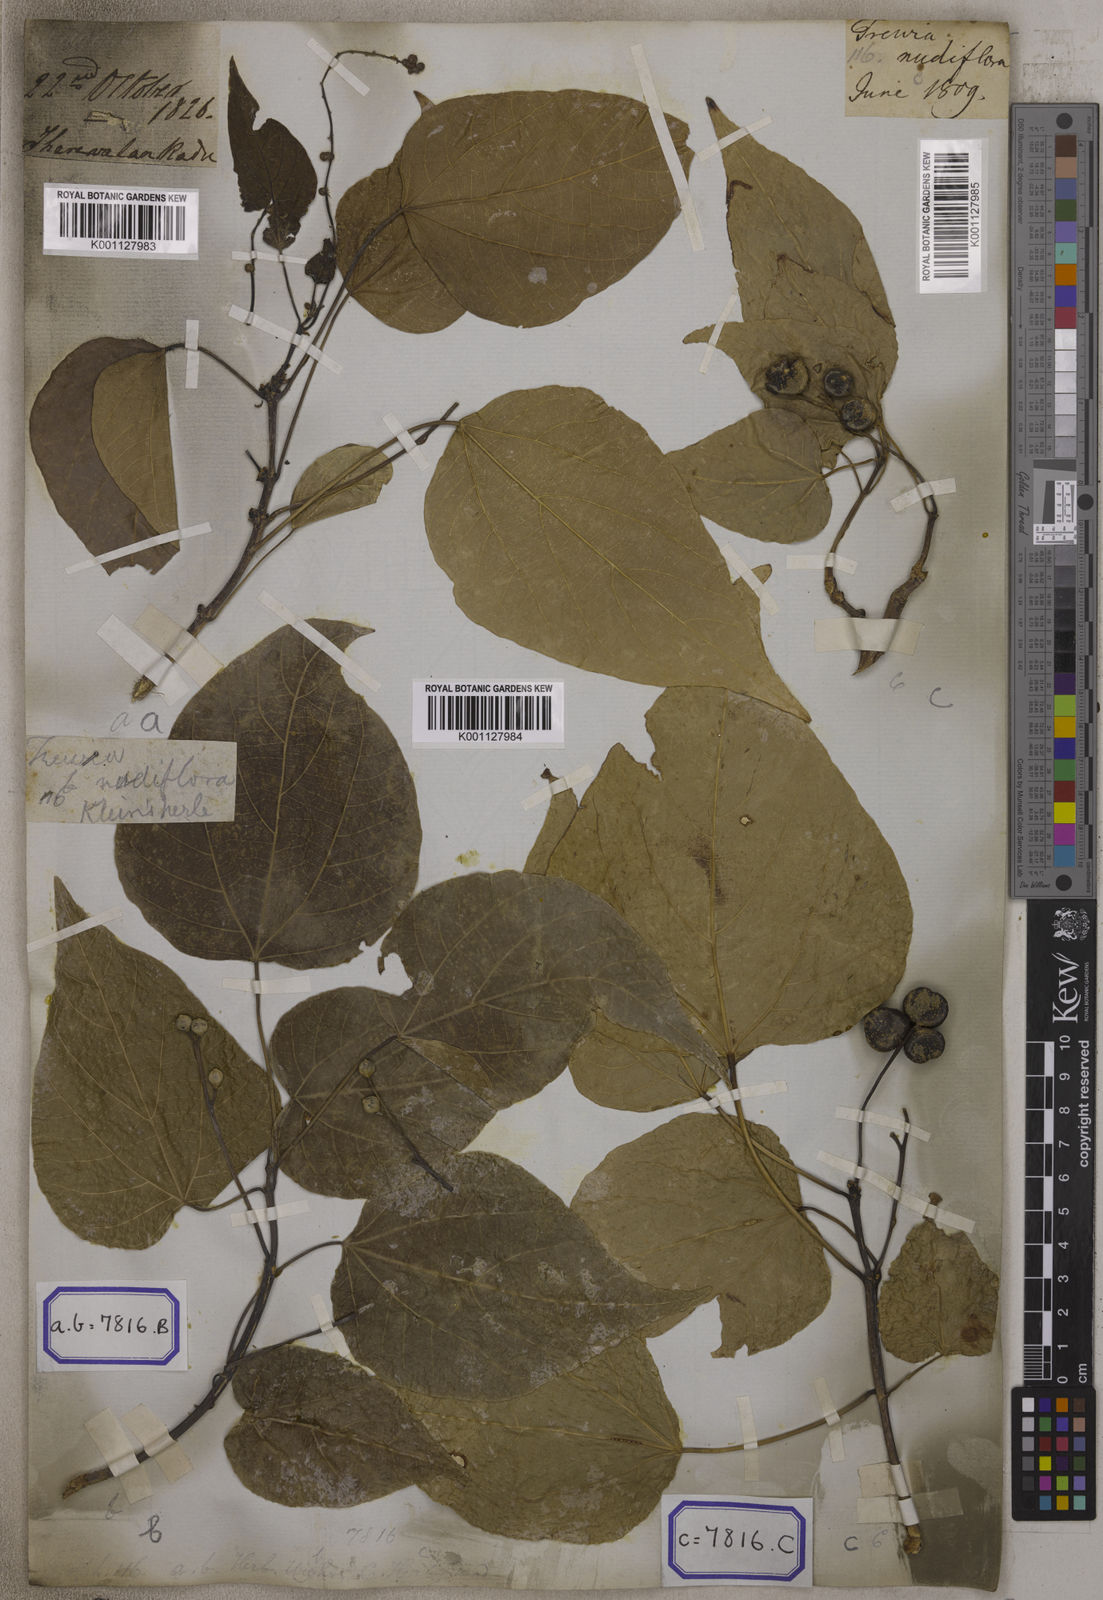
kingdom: Plantae
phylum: Tracheophyta
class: Magnoliopsida
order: Malpighiales
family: Euphorbiaceae
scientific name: Euphorbiaceae
